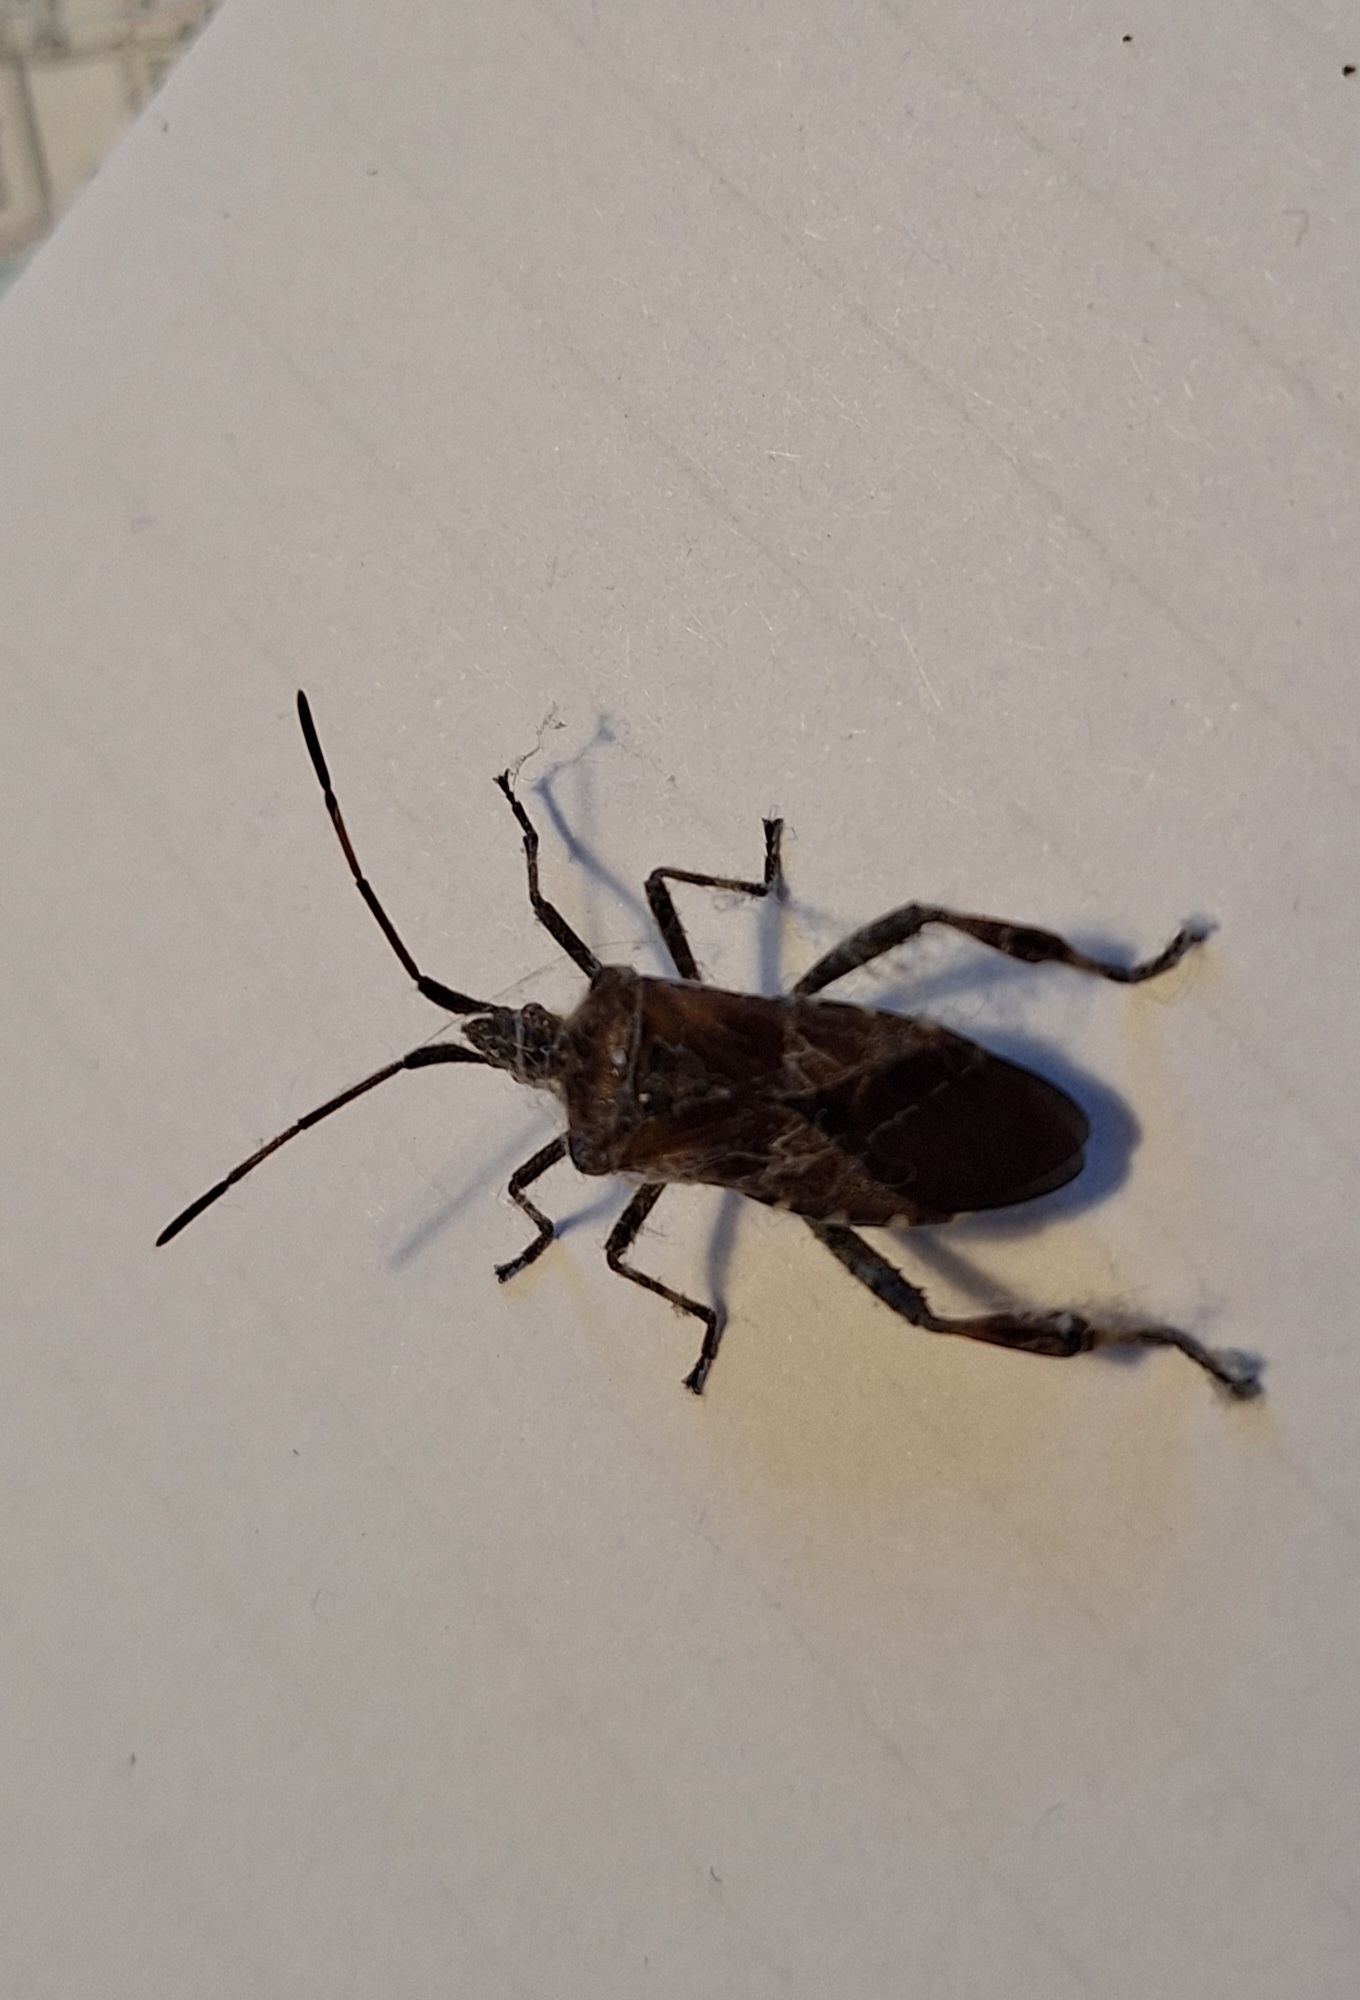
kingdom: Animalia
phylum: Arthropoda
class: Insecta
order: Hemiptera
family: Coreidae
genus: Leptoglossus
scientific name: Leptoglossus occidentalis
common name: Amerikansk fyrretæge
